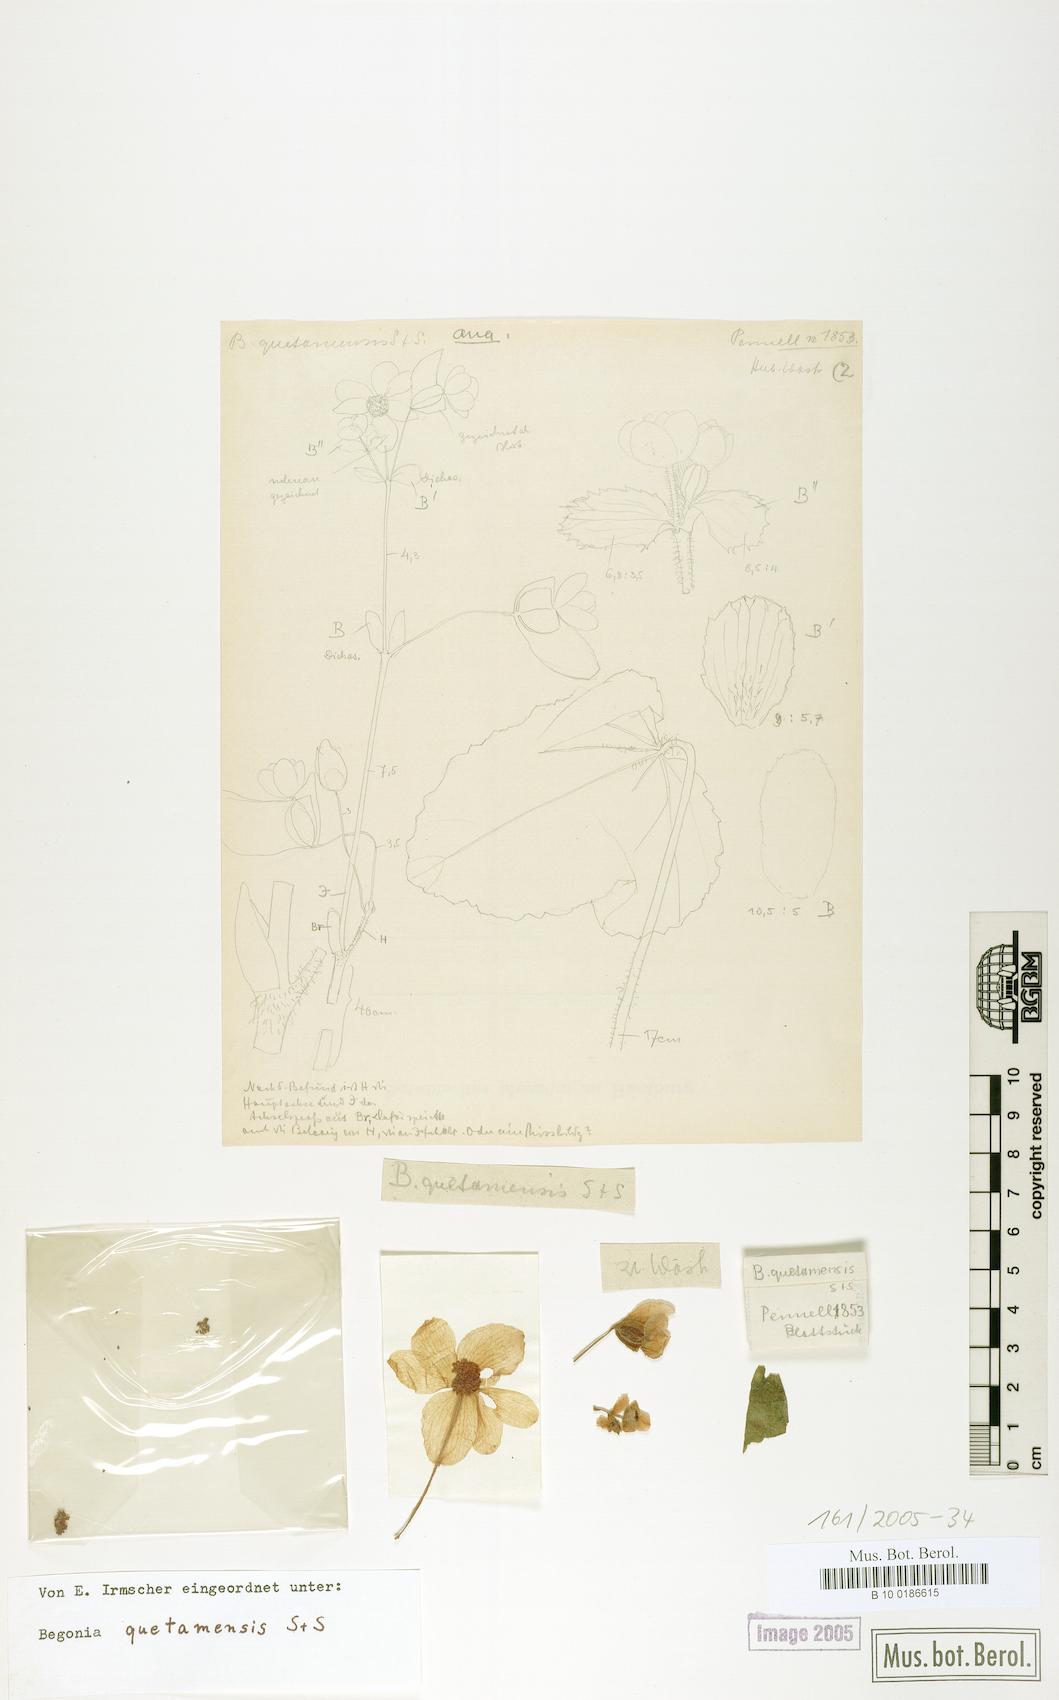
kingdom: Plantae
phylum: Tracheophyta
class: Magnoliopsida
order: Cucurbitales
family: Begoniaceae
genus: Begonia
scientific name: Begonia micranthera
